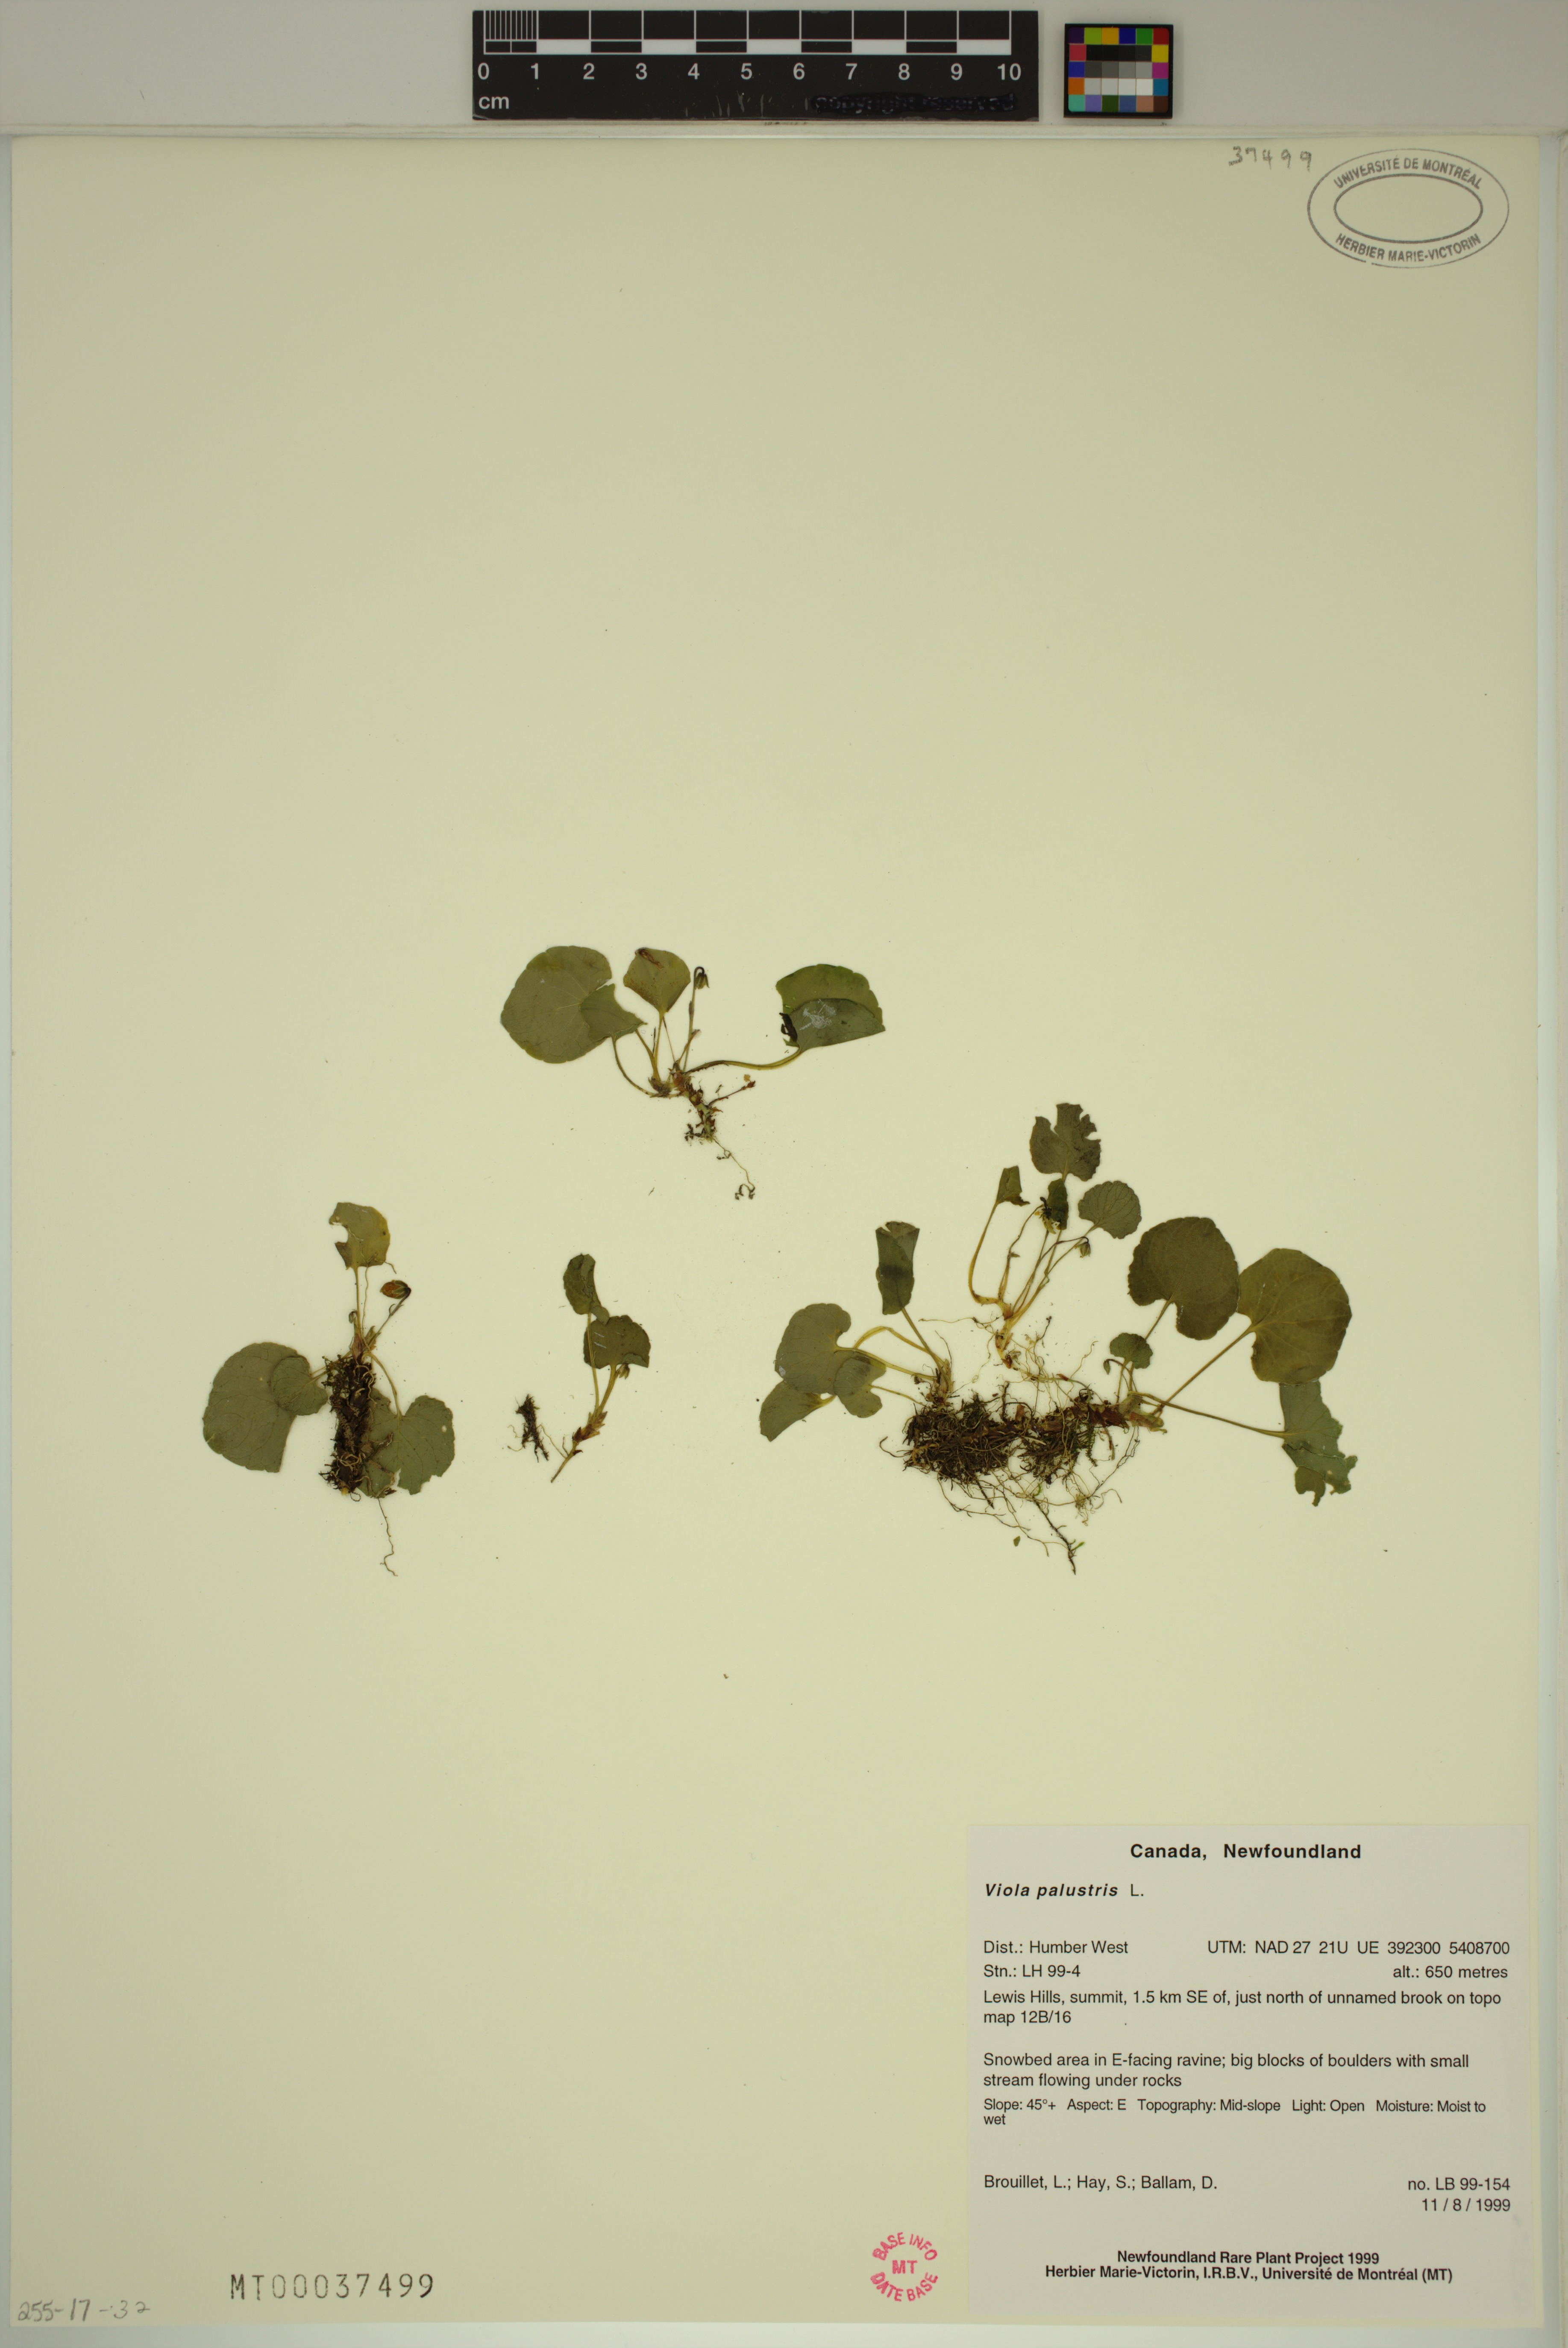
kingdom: Plantae
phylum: Tracheophyta
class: Magnoliopsida
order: Malpighiales
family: Violaceae
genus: Viola
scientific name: Viola palustris
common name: Marsh violet
